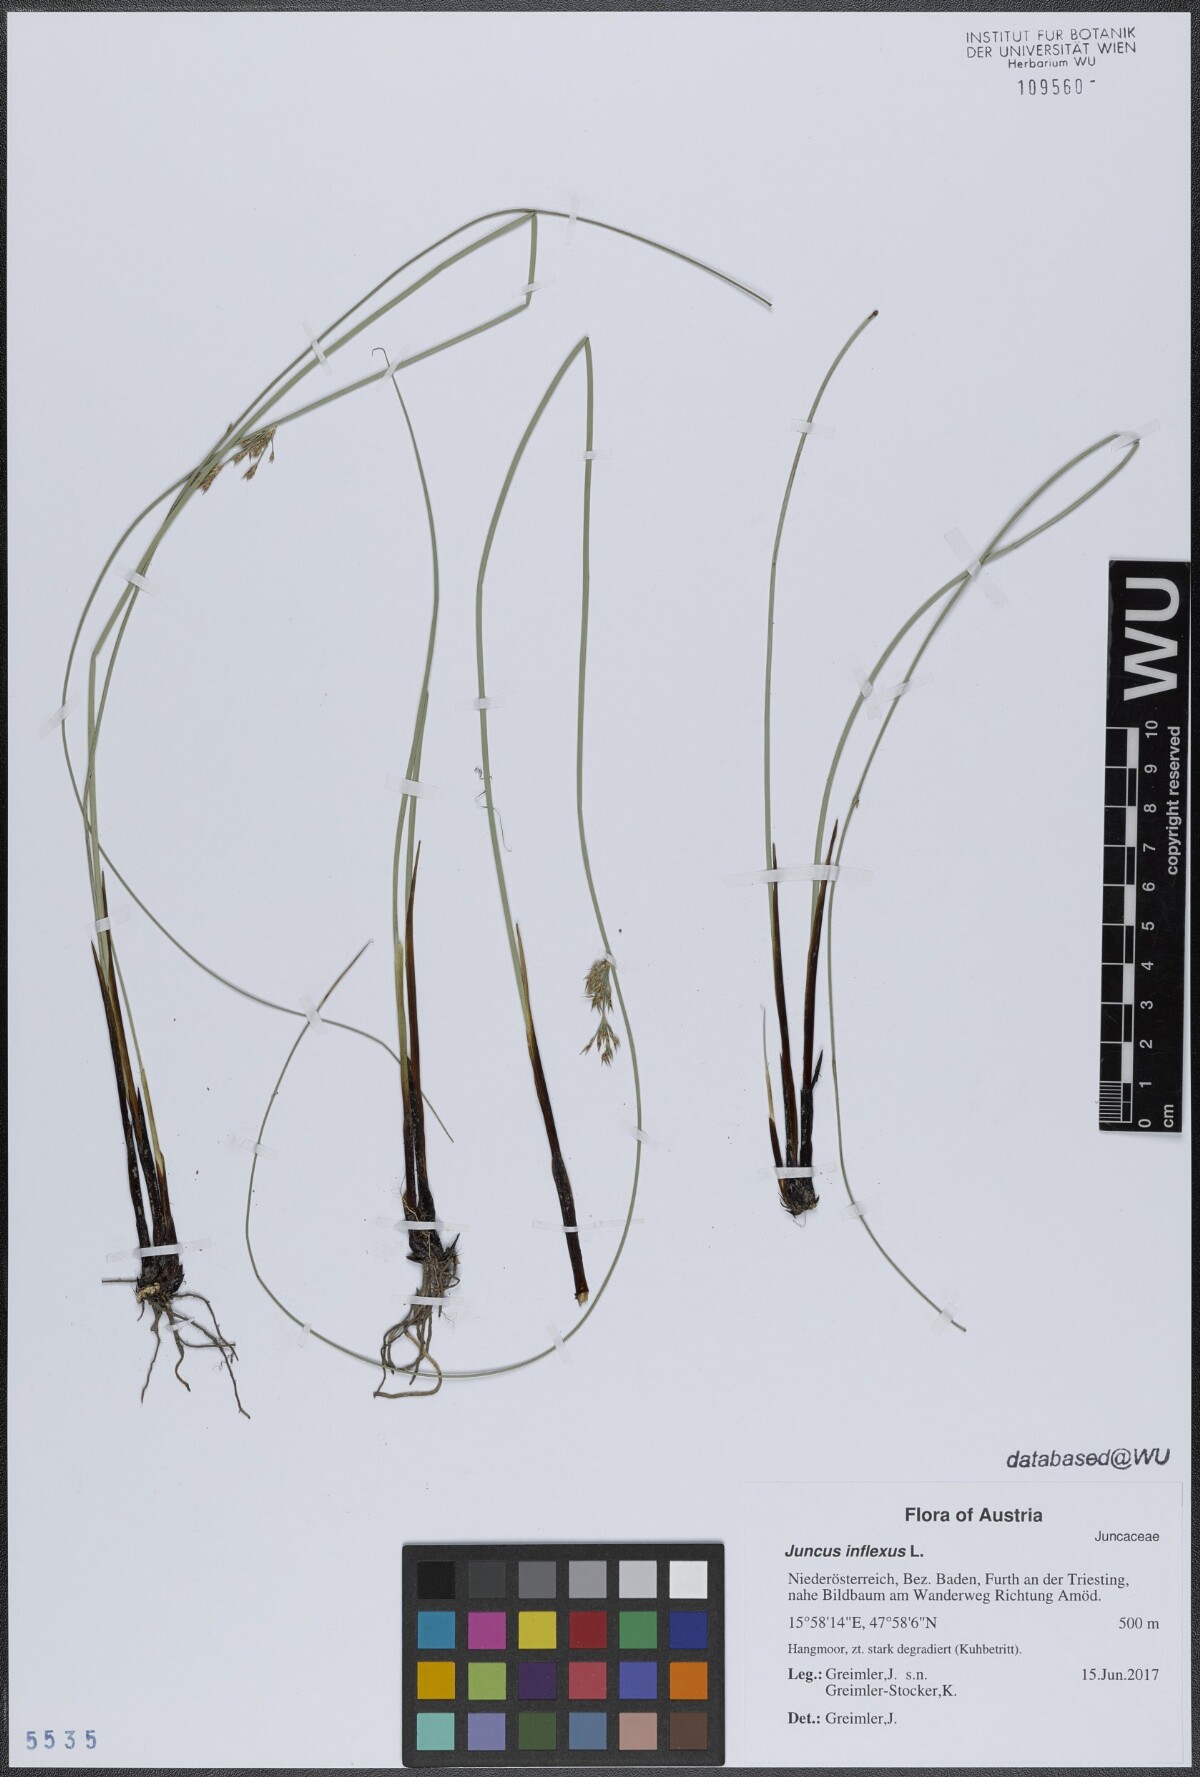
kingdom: Plantae
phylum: Tracheophyta
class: Liliopsida
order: Poales
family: Juncaceae
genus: Juncus
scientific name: Juncus inflexus
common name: Hard rush
